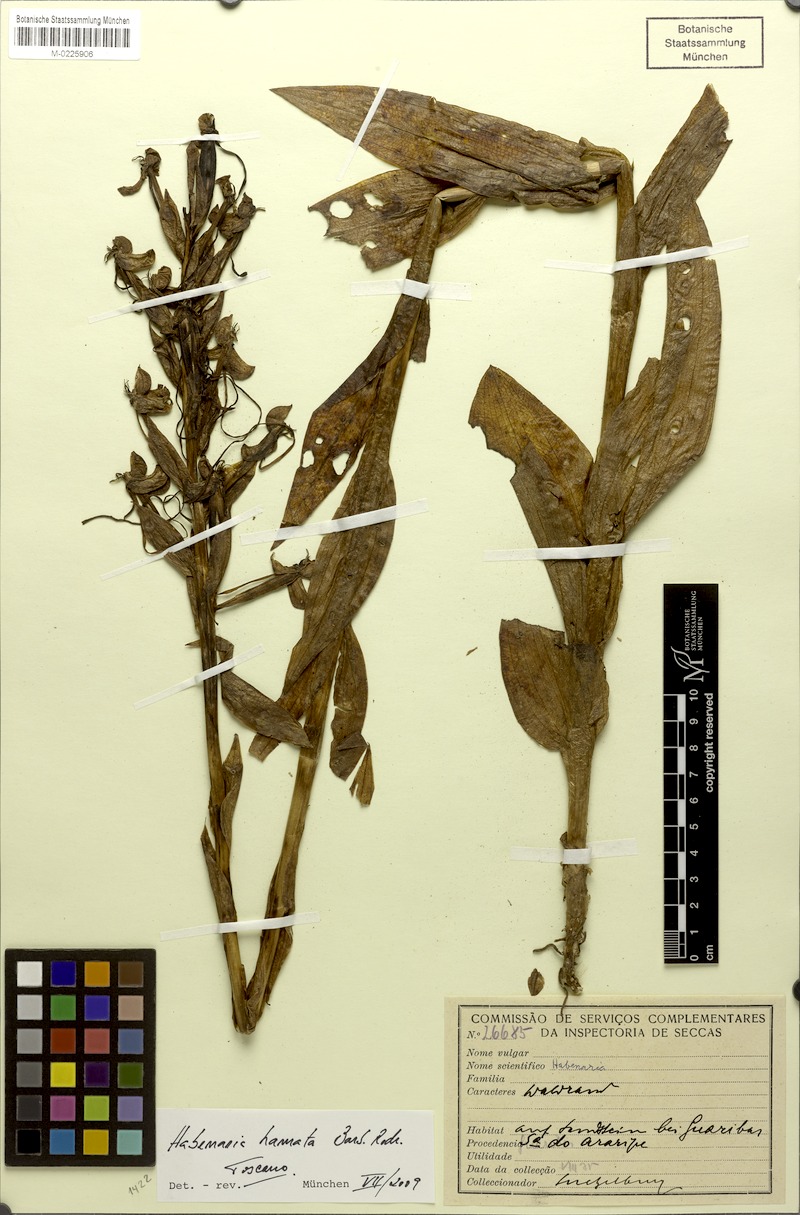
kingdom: Plantae
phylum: Tracheophyta
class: Liliopsida
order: Asparagales
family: Orchidaceae
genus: Habenaria
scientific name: Habenaria hamata
